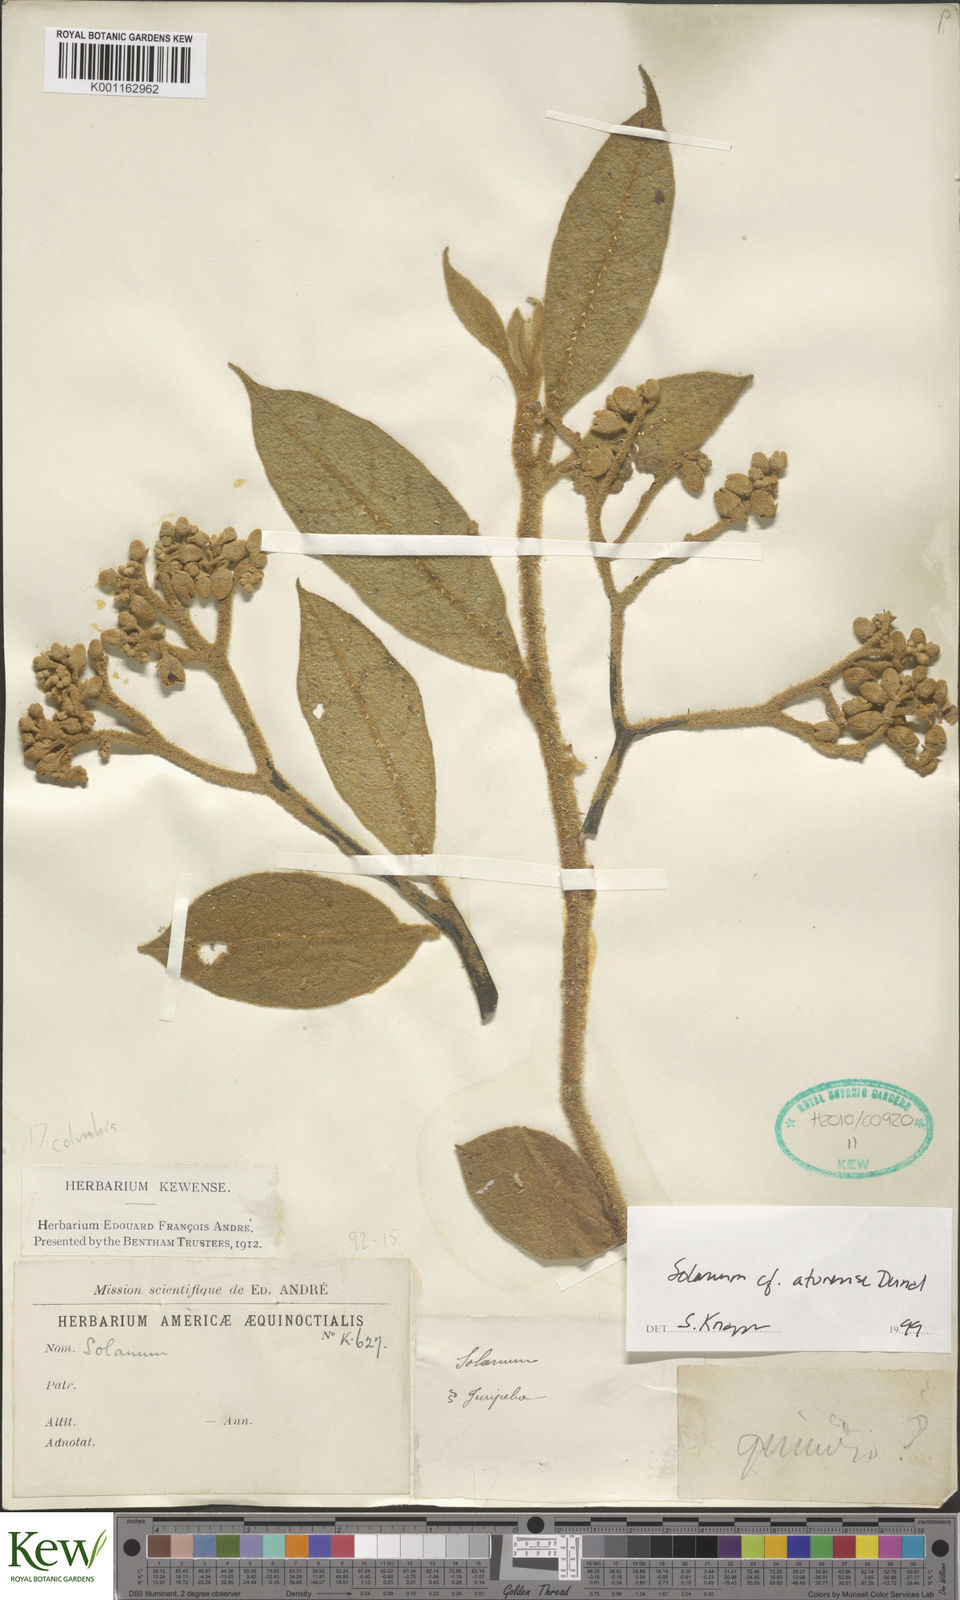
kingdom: Plantae
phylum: Tracheophyta
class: Magnoliopsida
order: Solanales
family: Solanaceae
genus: Solanum
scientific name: Solanum aturense
